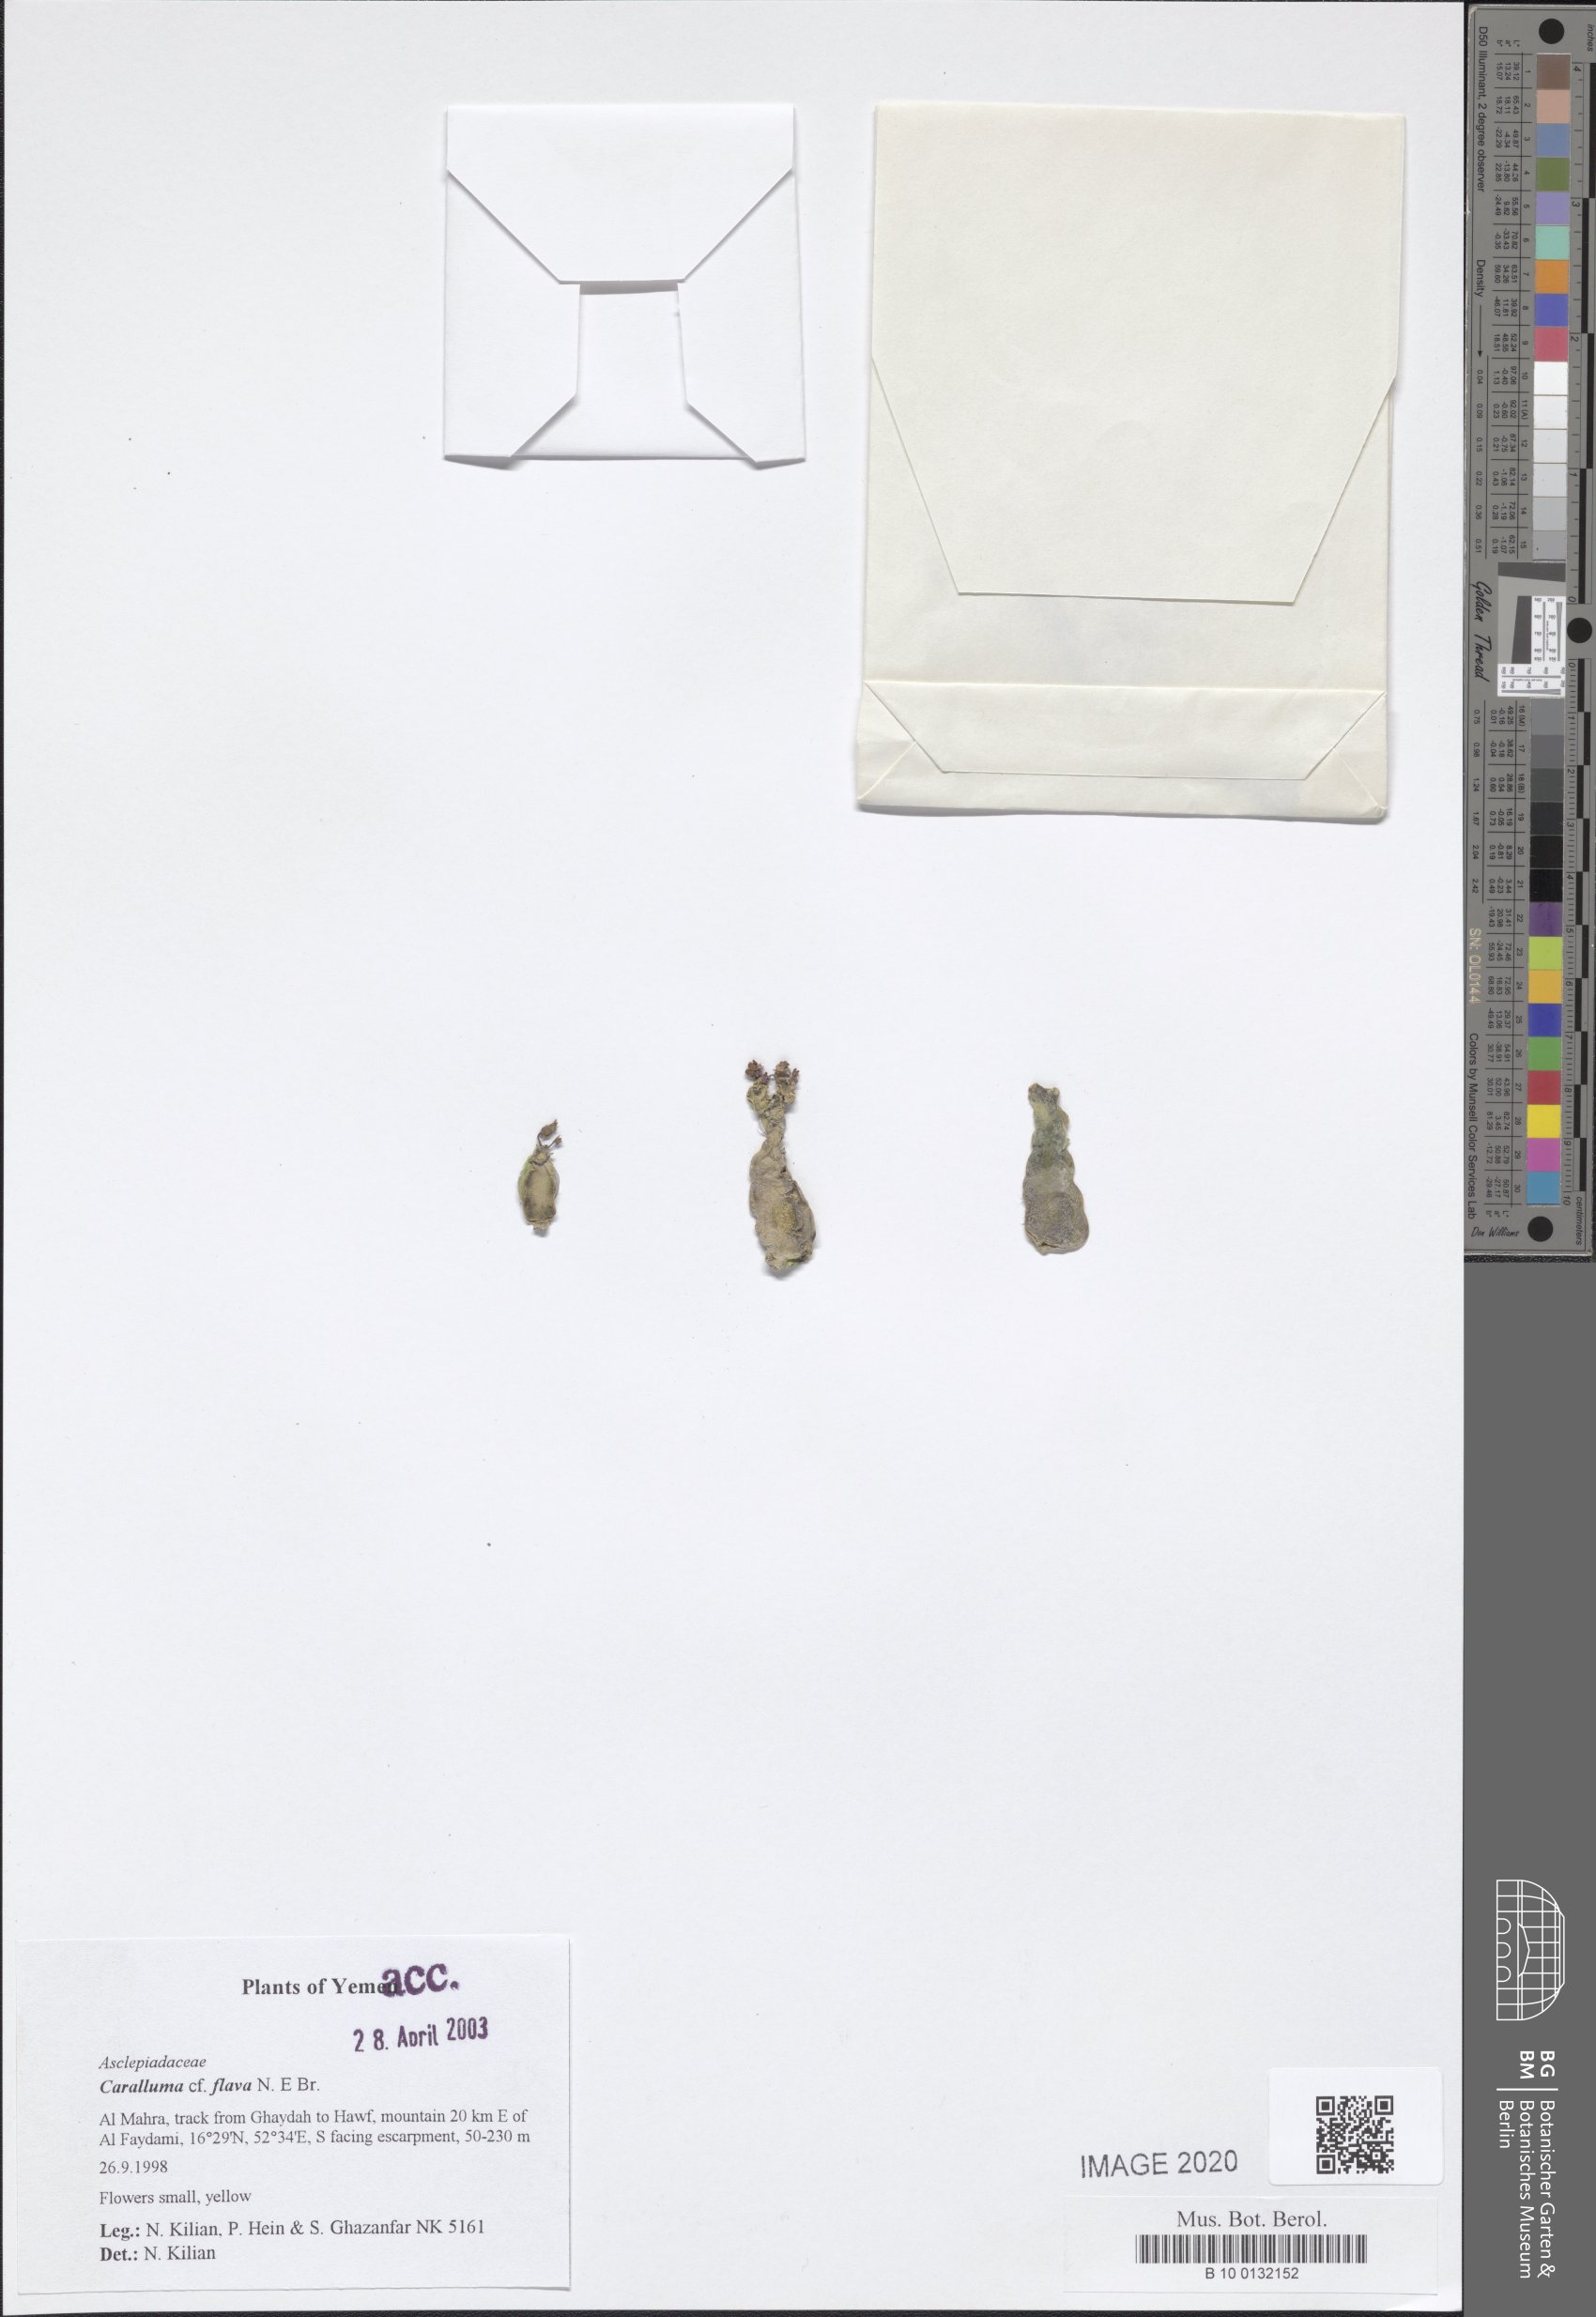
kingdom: Plantae
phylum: Tracheophyta
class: Magnoliopsida
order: Gentianales
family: Apocynaceae
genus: Ceropegia
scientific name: Ceropegia flava
